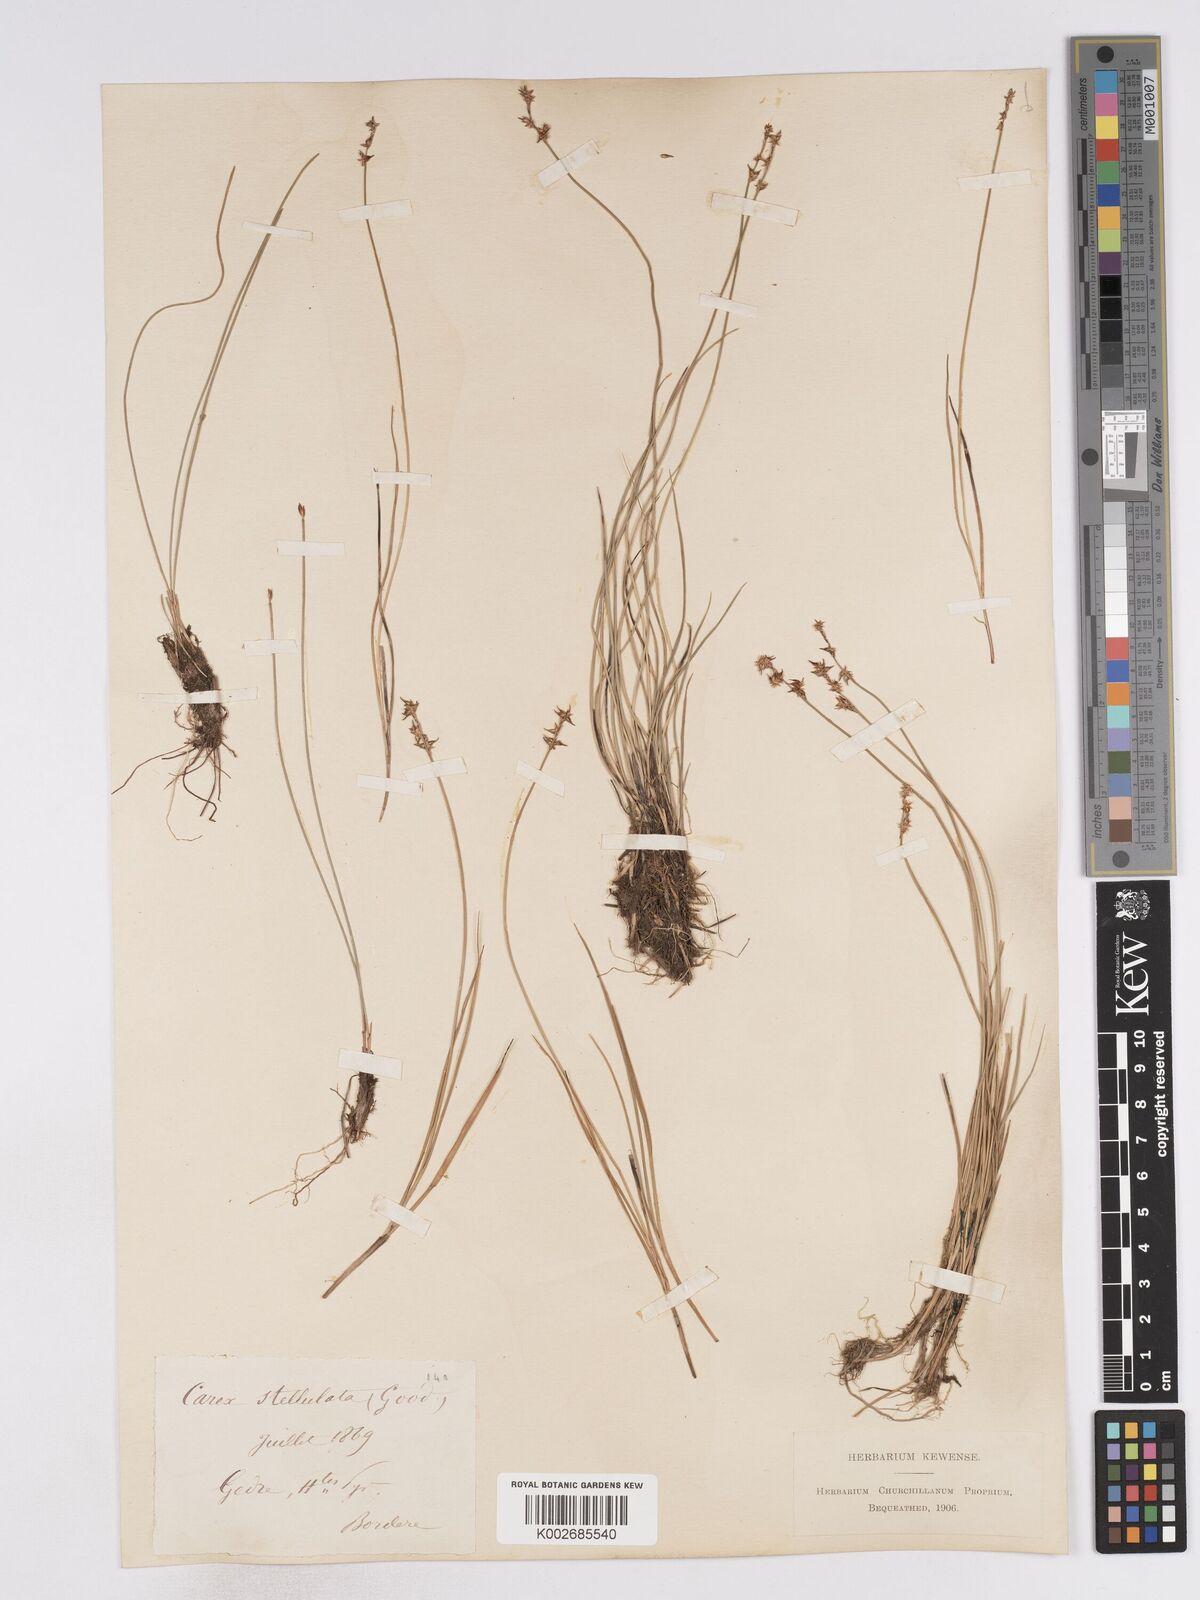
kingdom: Plantae
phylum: Tracheophyta
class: Liliopsida
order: Poales
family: Cyperaceae
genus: Carex
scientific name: Carex echinata
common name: Star sedge
